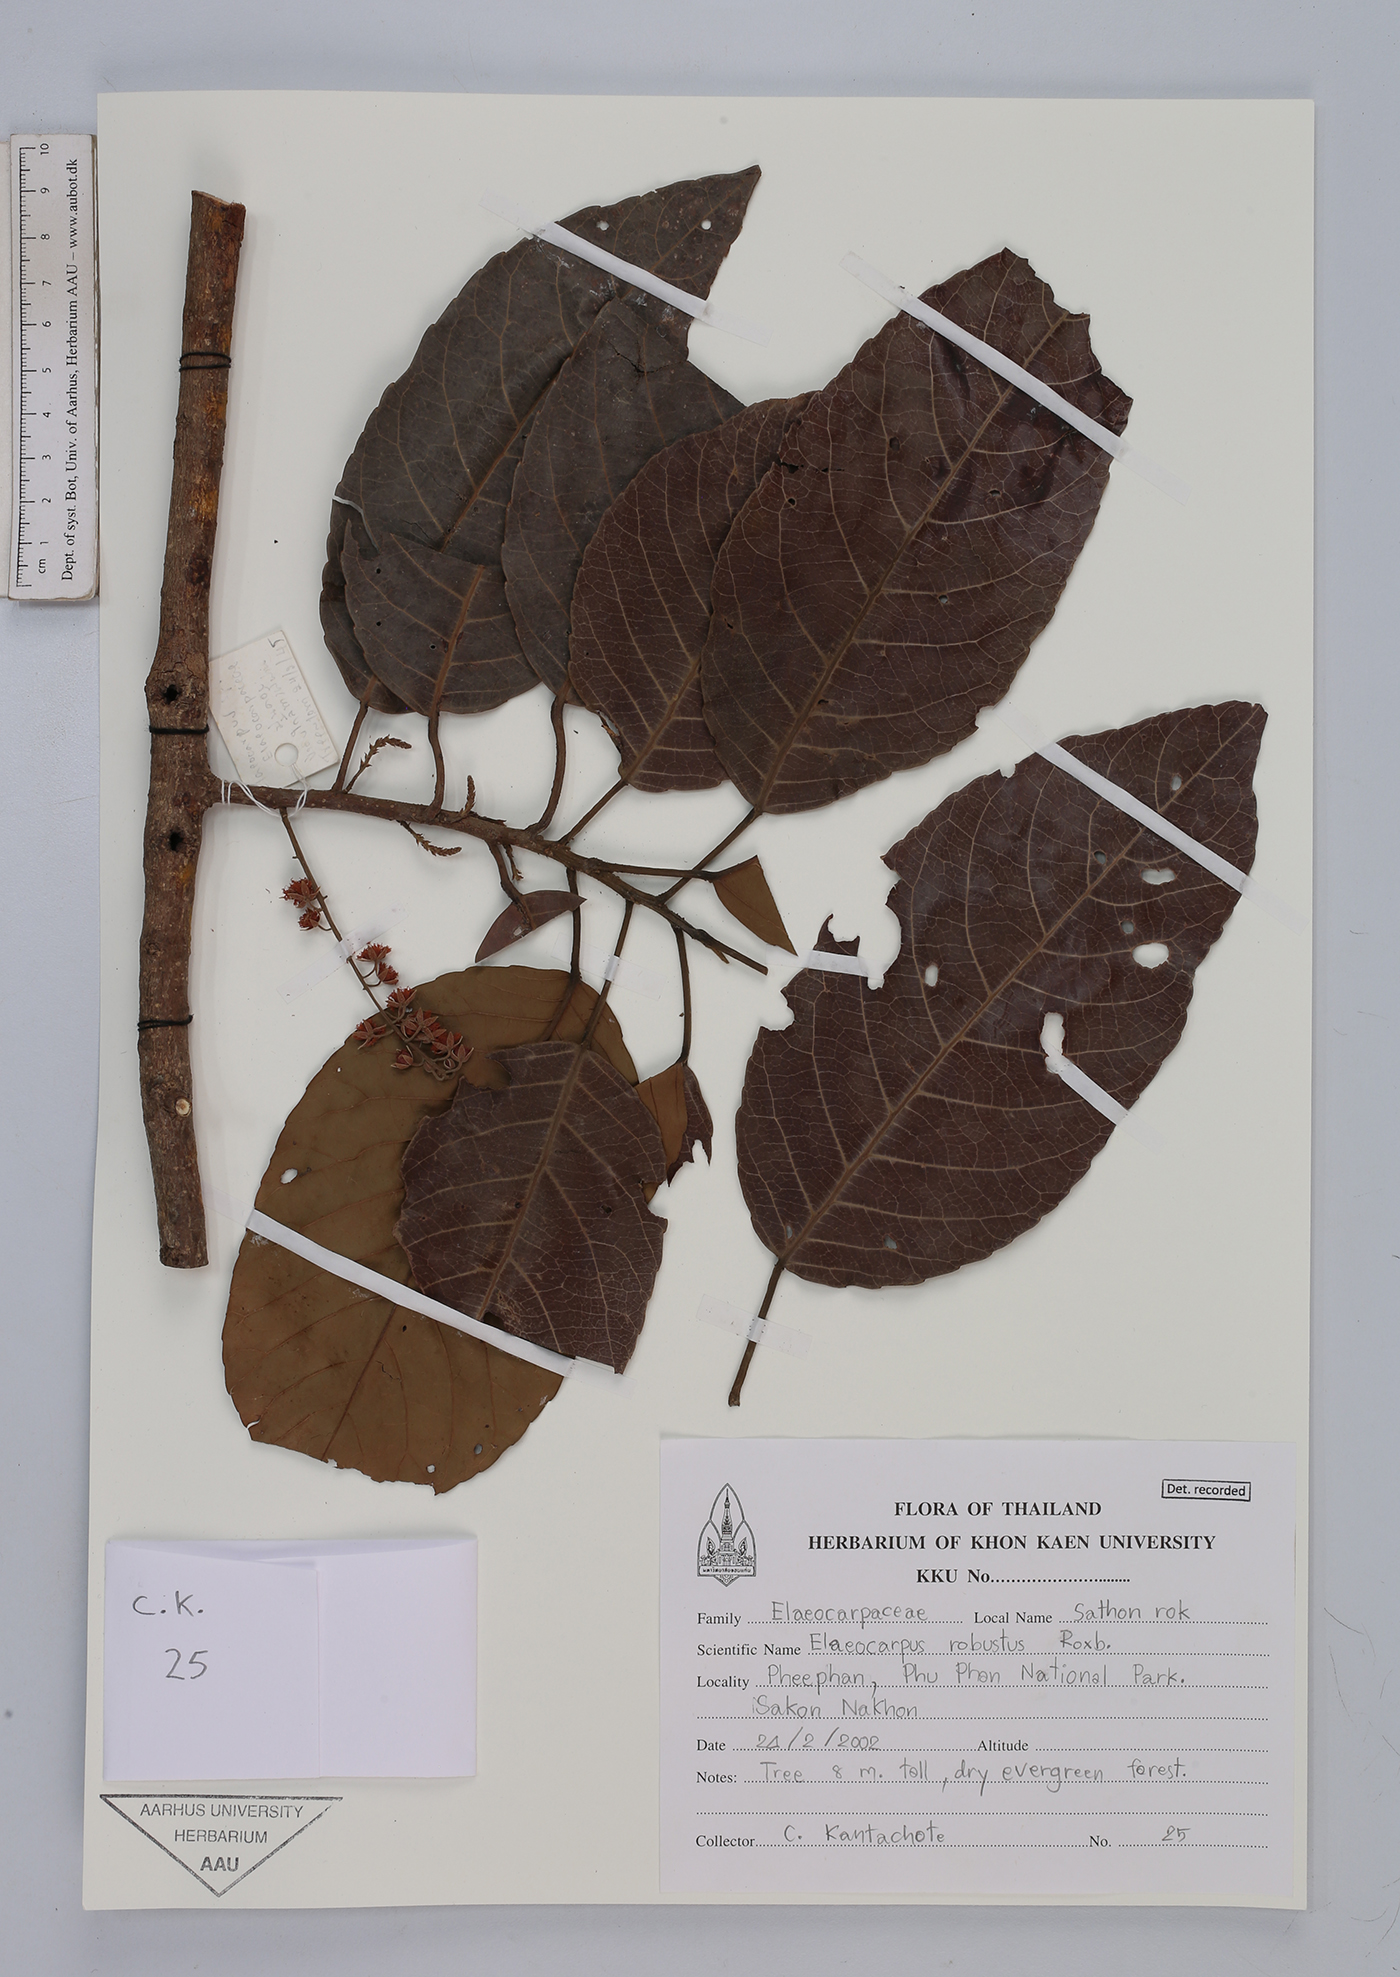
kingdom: Plantae
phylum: Tracheophyta
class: Magnoliopsida
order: Oxalidales
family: Elaeocarpaceae
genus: Elaeocarpus
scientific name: Elaeocarpus robustus
